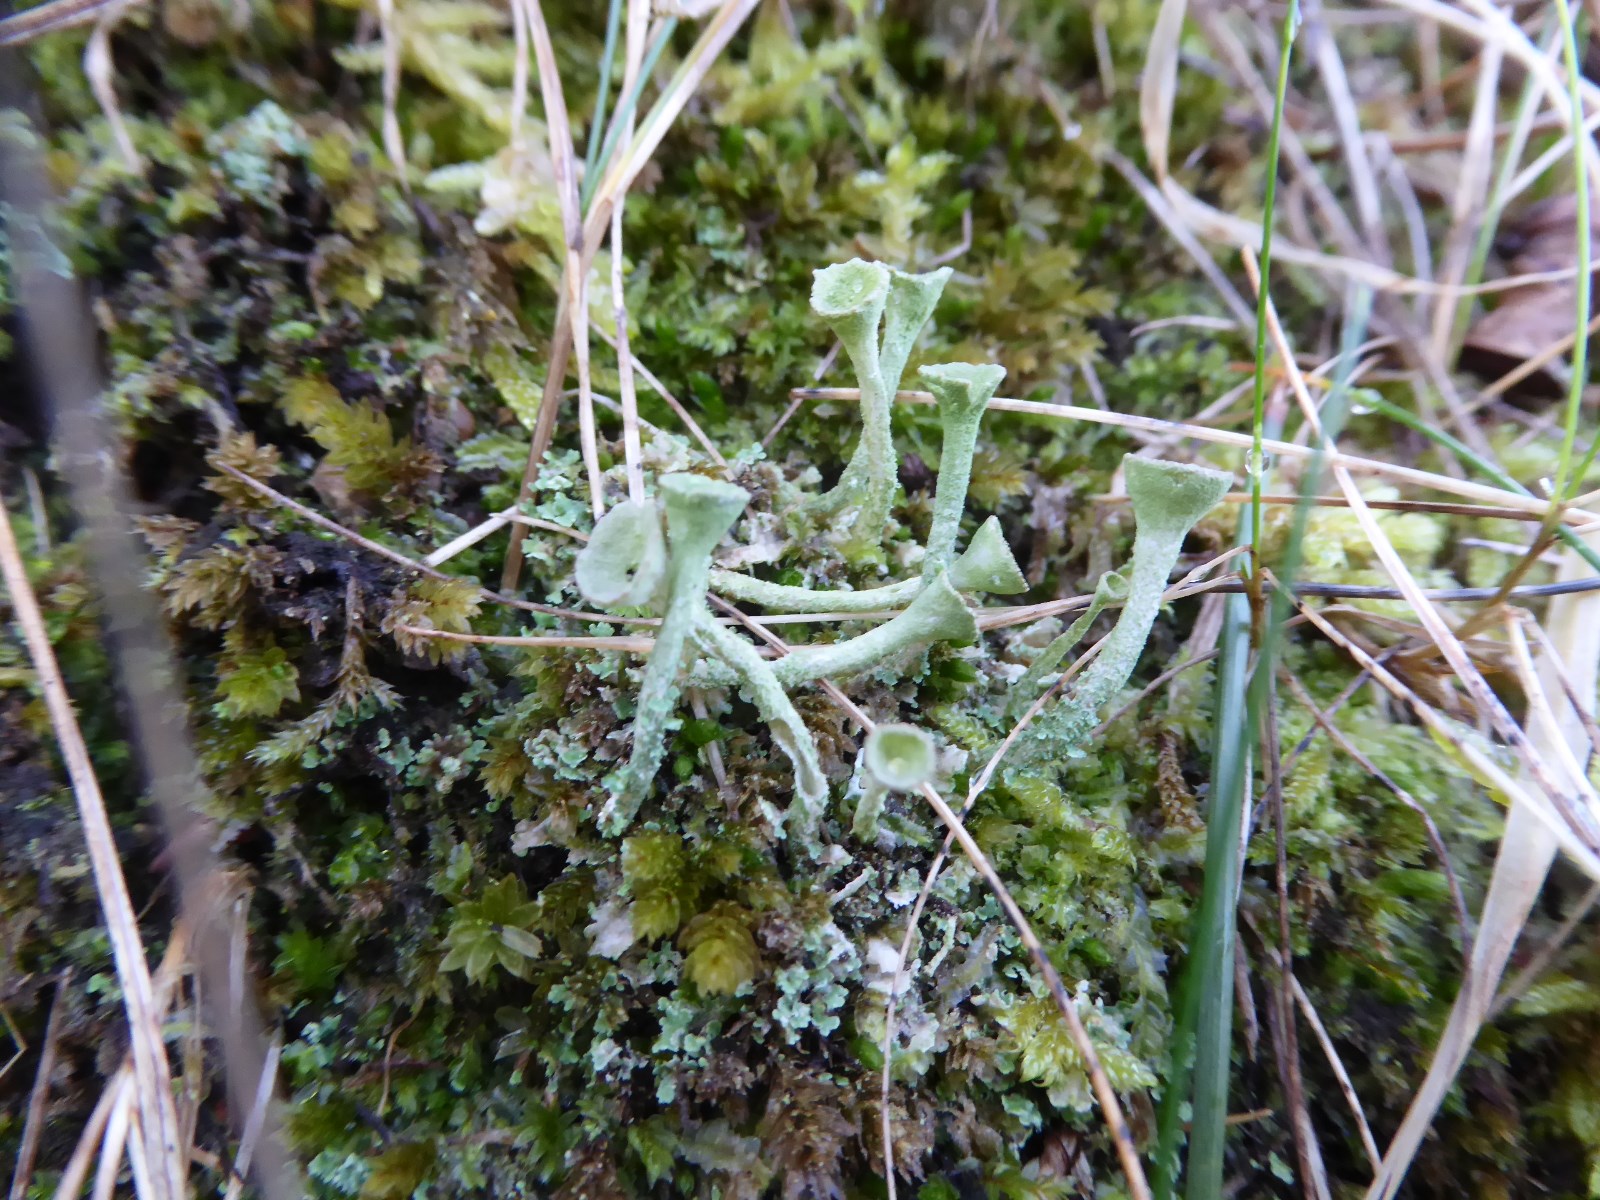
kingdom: Fungi
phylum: Ascomycota
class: Lecanoromycetes
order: Lecanorales
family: Cladoniaceae
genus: Cladonia
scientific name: Cladonia fimbriata
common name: bleggrøn bægerlav
